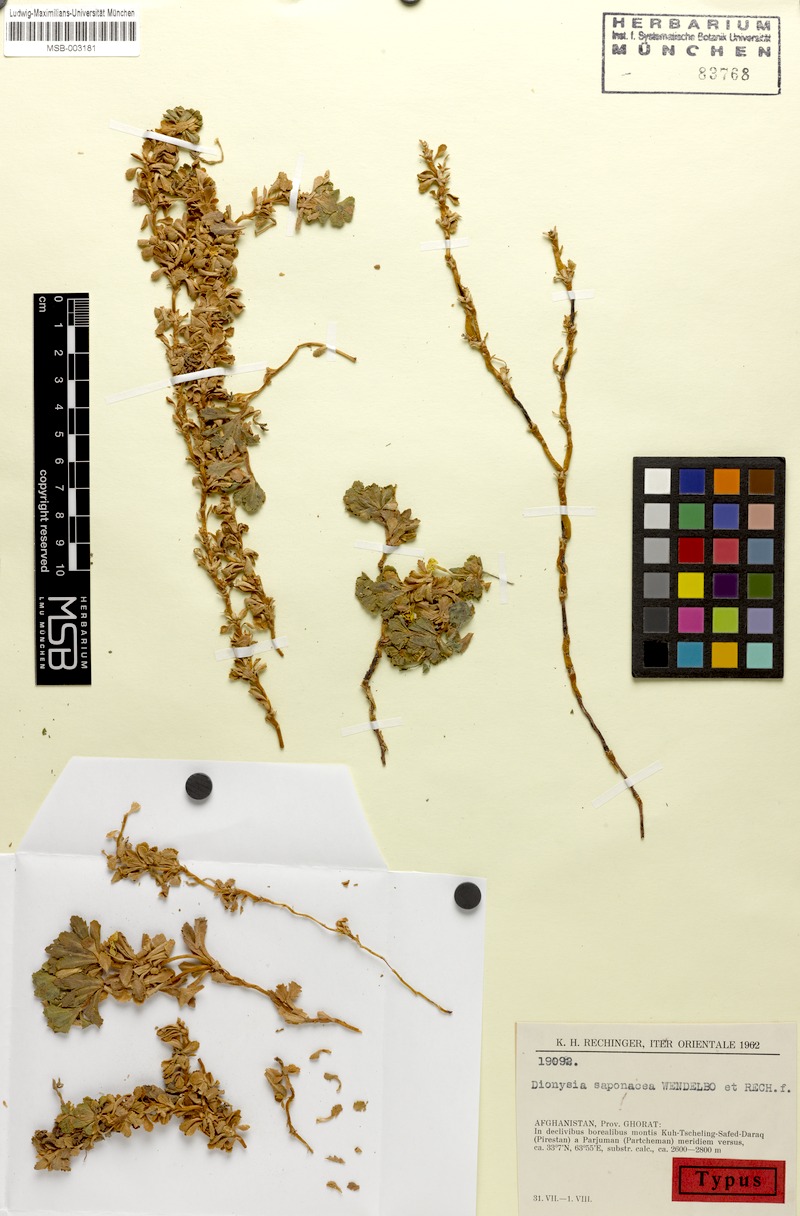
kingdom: Plantae
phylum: Tracheophyta
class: Magnoliopsida
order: Ericales
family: Primulaceae
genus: Dionysia
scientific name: Dionysia saponacea
